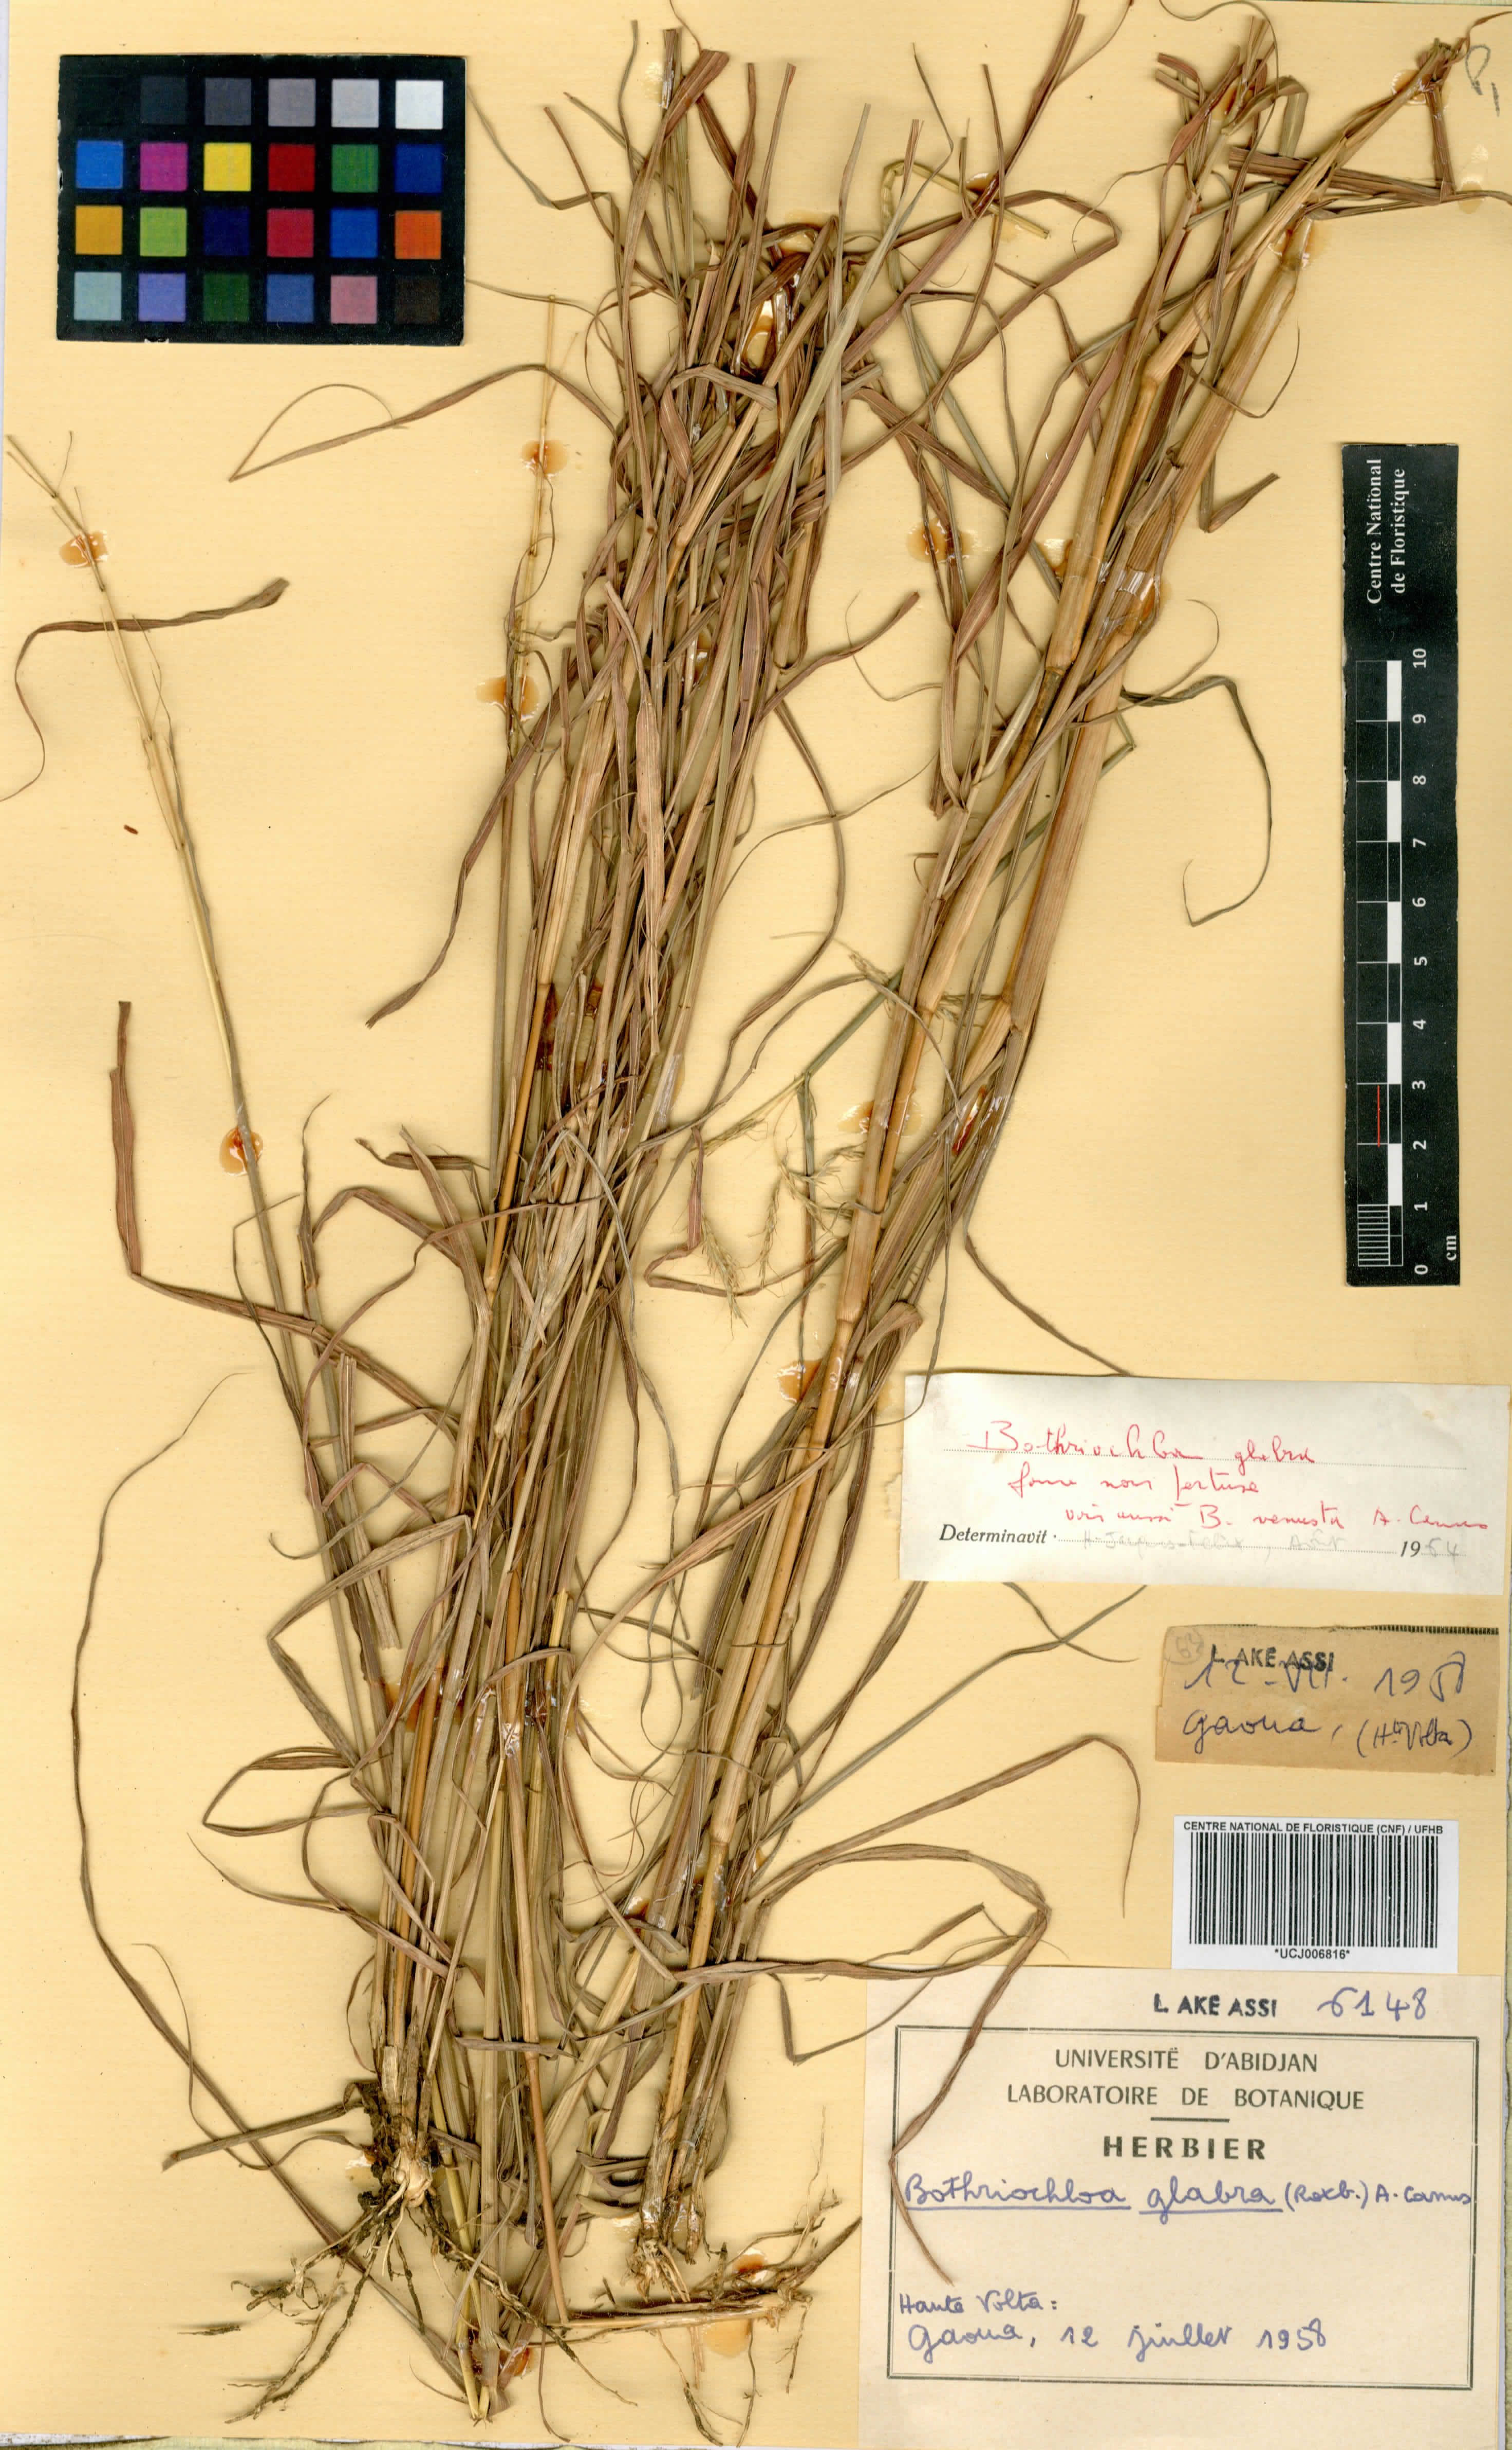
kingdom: Plantae
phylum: Tracheophyta
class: Liliopsida
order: Poales
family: Poaceae
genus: Bothriochloa
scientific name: Bothriochloa glabra
